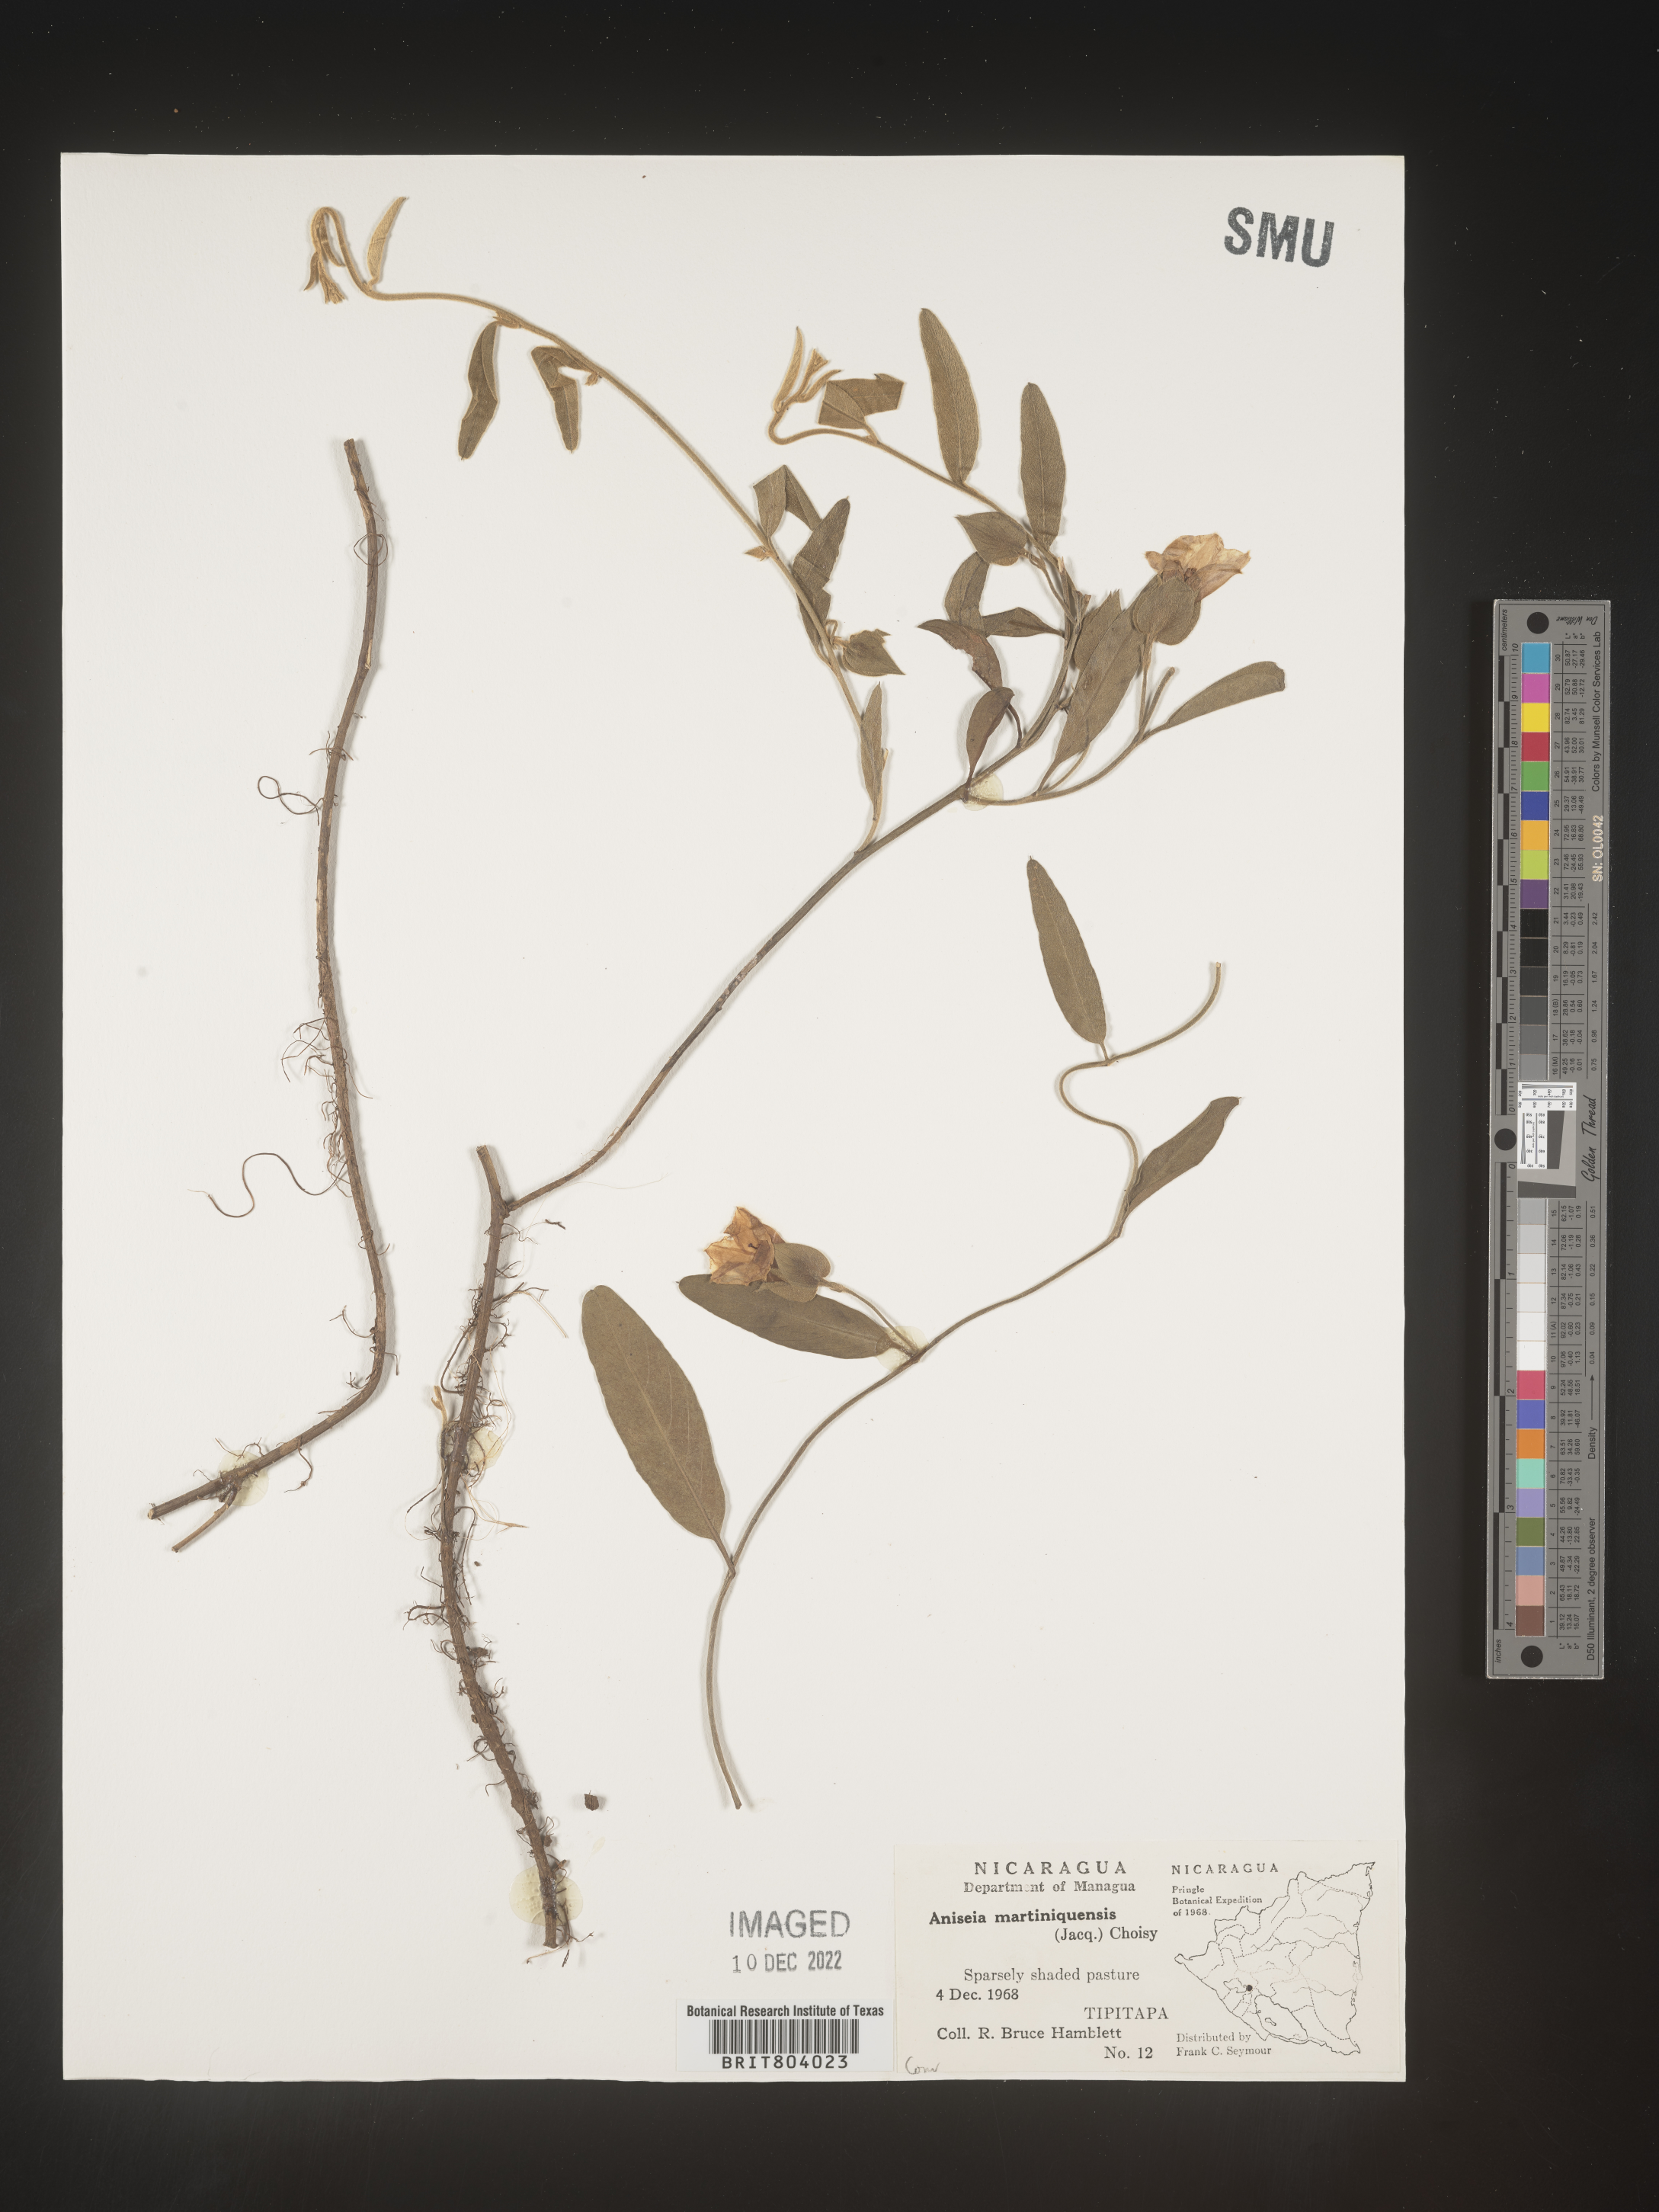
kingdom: Plantae
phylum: Tracheophyta
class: Magnoliopsida
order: Solanales
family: Convolvulaceae
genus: Aniseia
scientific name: Aniseia
